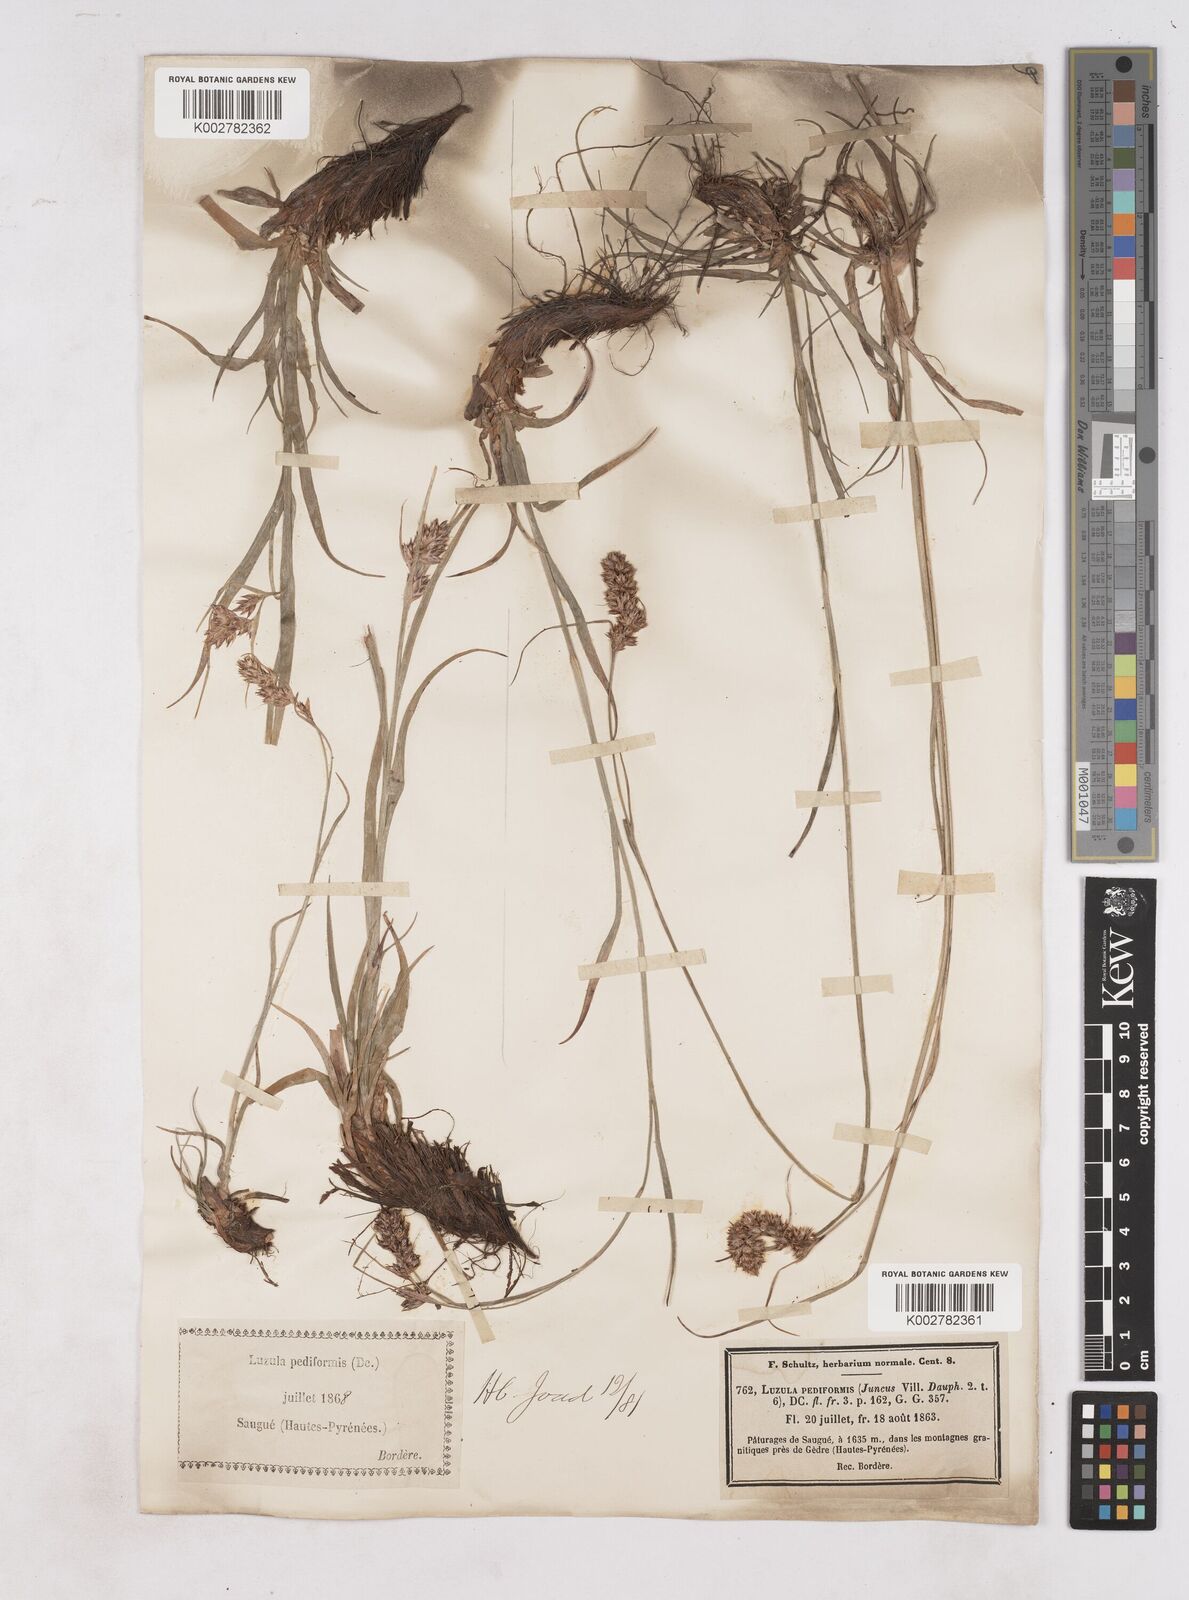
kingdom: Plantae
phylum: Tracheophyta
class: Liliopsida
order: Poales
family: Juncaceae
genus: Luzula
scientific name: Luzula pediformis
